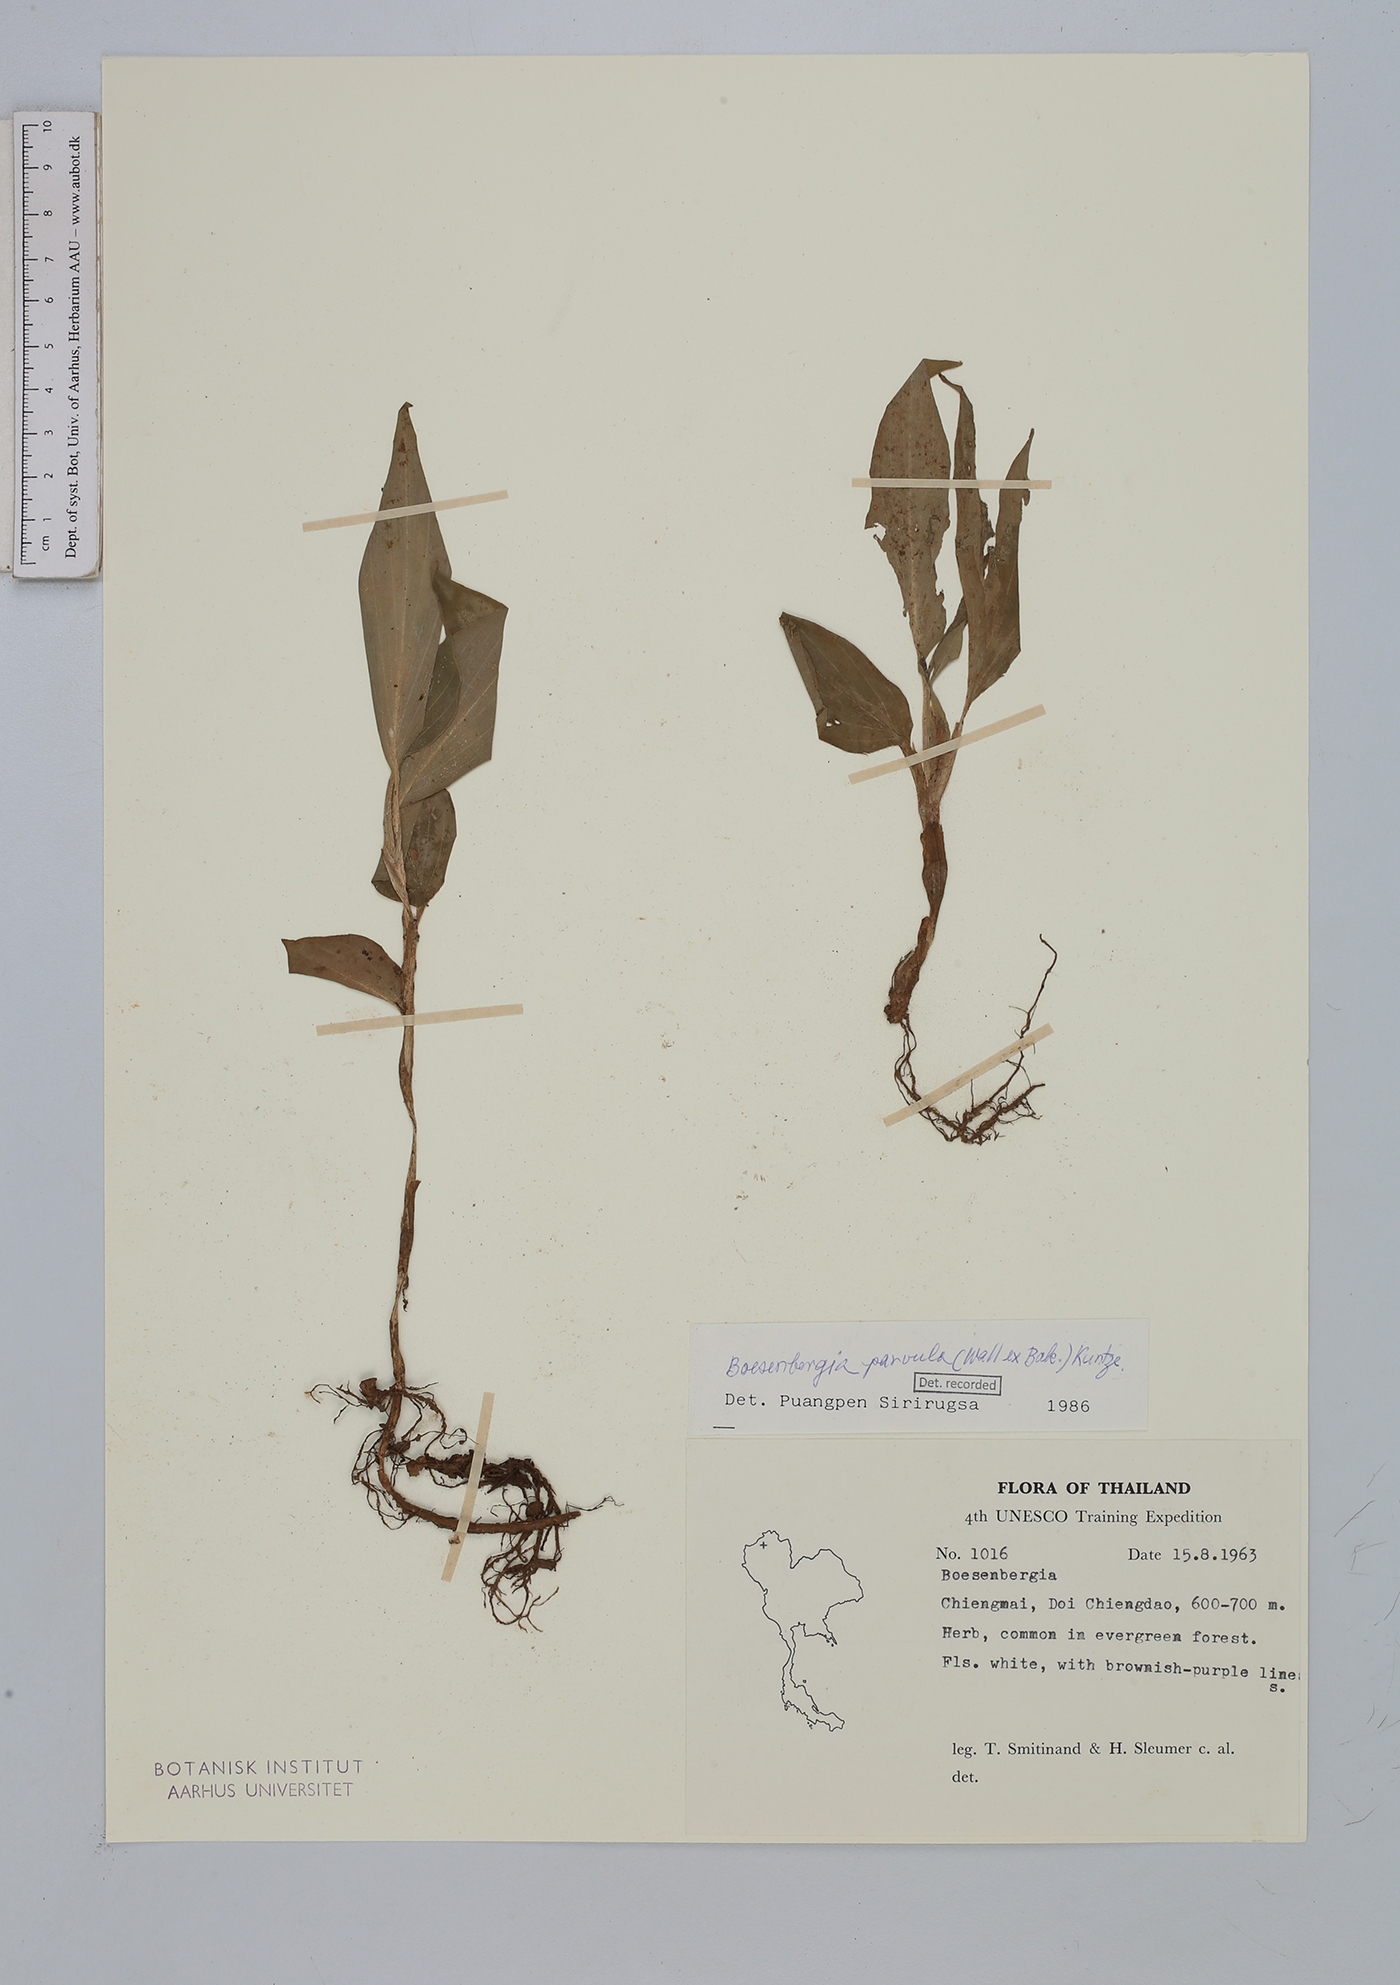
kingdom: Plantae
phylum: Tracheophyta
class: Liliopsida
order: Zingiberales
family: Zingiberaceae
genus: Boesenbergia
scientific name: Boesenbergia parvula
